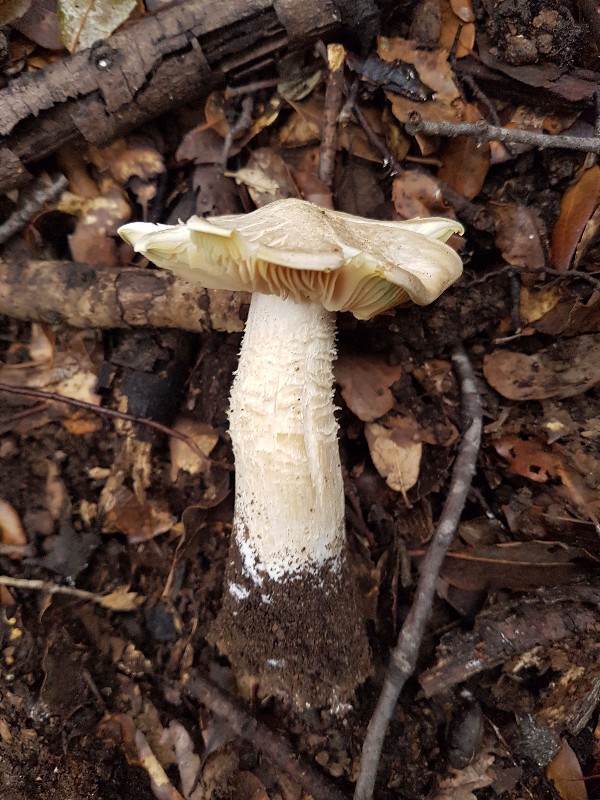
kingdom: Fungi
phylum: Basidiomycota
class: Agaricomycetes
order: Agaricales
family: Entolomataceae
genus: Entoloma
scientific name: Entoloma sinuatum
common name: giftig rødblad
